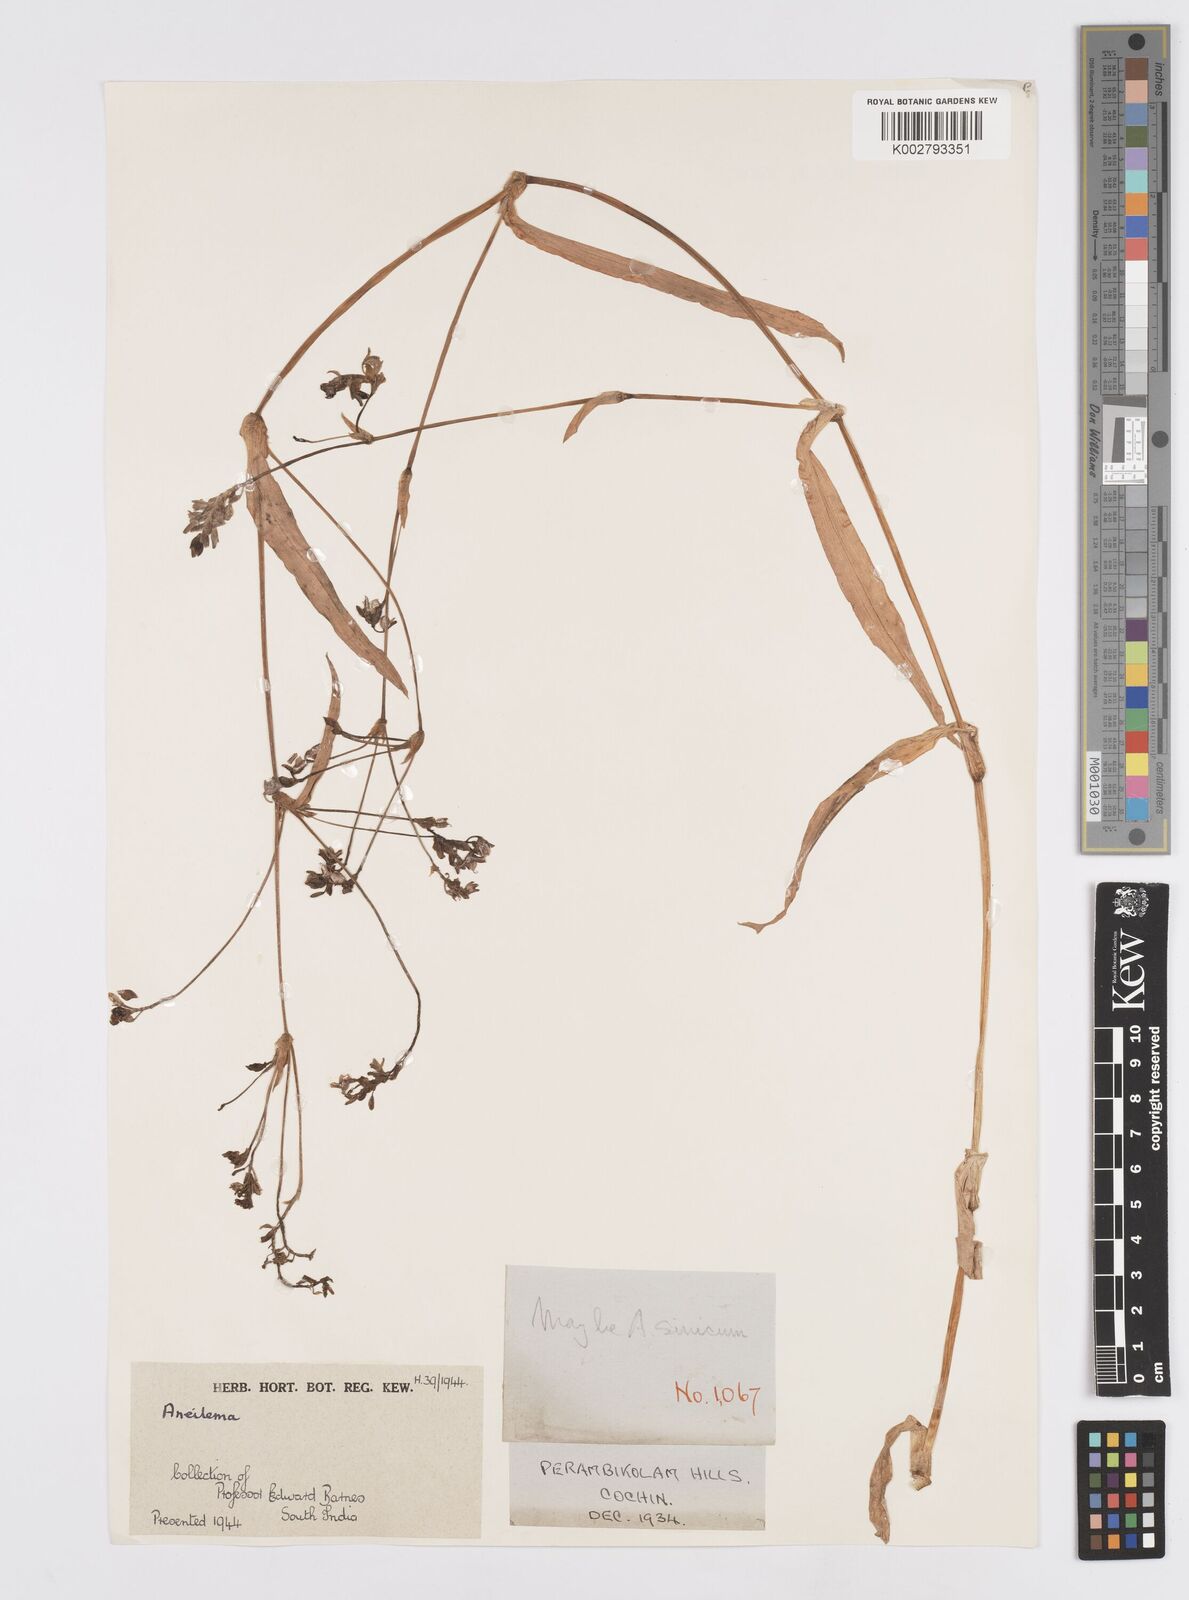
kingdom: Plantae
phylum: Tracheophyta
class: Liliopsida
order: Commelinales
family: Commelinaceae
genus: Murdannia
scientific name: Murdannia
